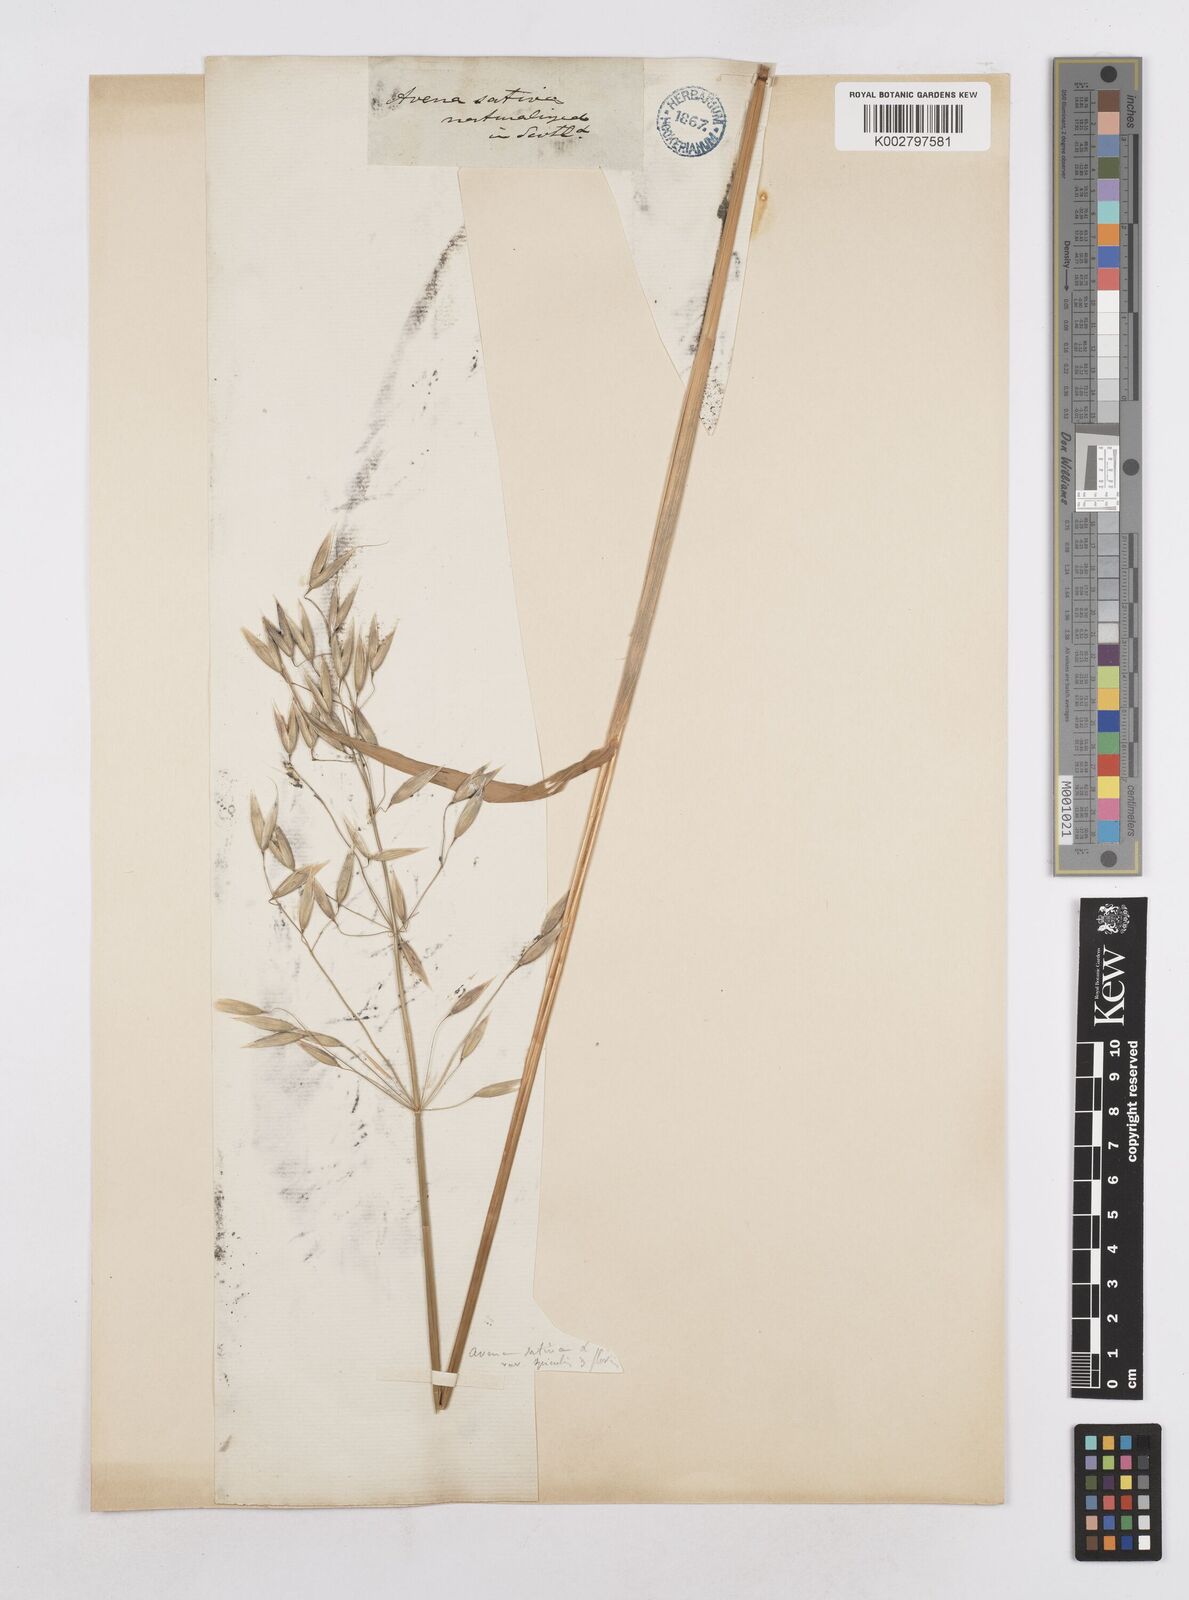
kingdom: Plantae
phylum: Tracheophyta
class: Liliopsida
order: Poales
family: Poaceae
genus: Avena
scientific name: Avena sativa
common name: Oat
